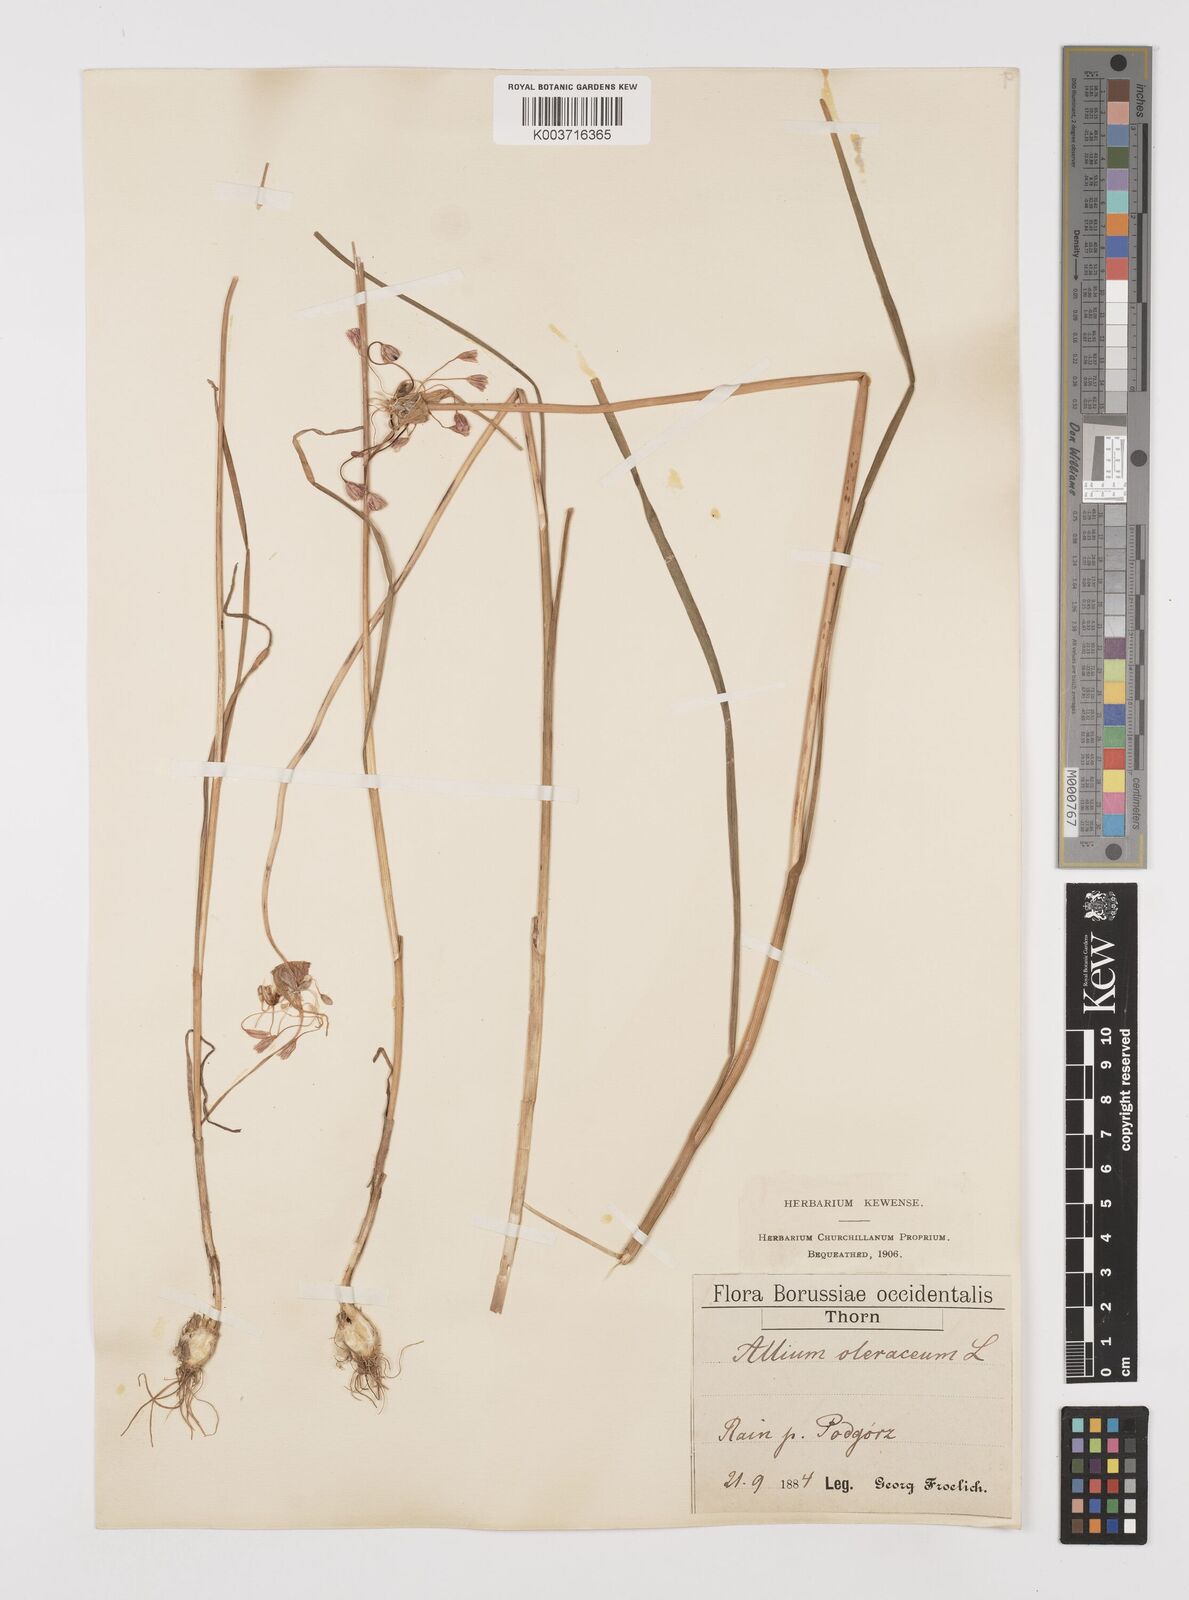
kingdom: Plantae
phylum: Tracheophyta
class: Liliopsida
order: Asparagales
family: Amaryllidaceae
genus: Allium
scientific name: Allium oleraceum
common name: Field garlic
